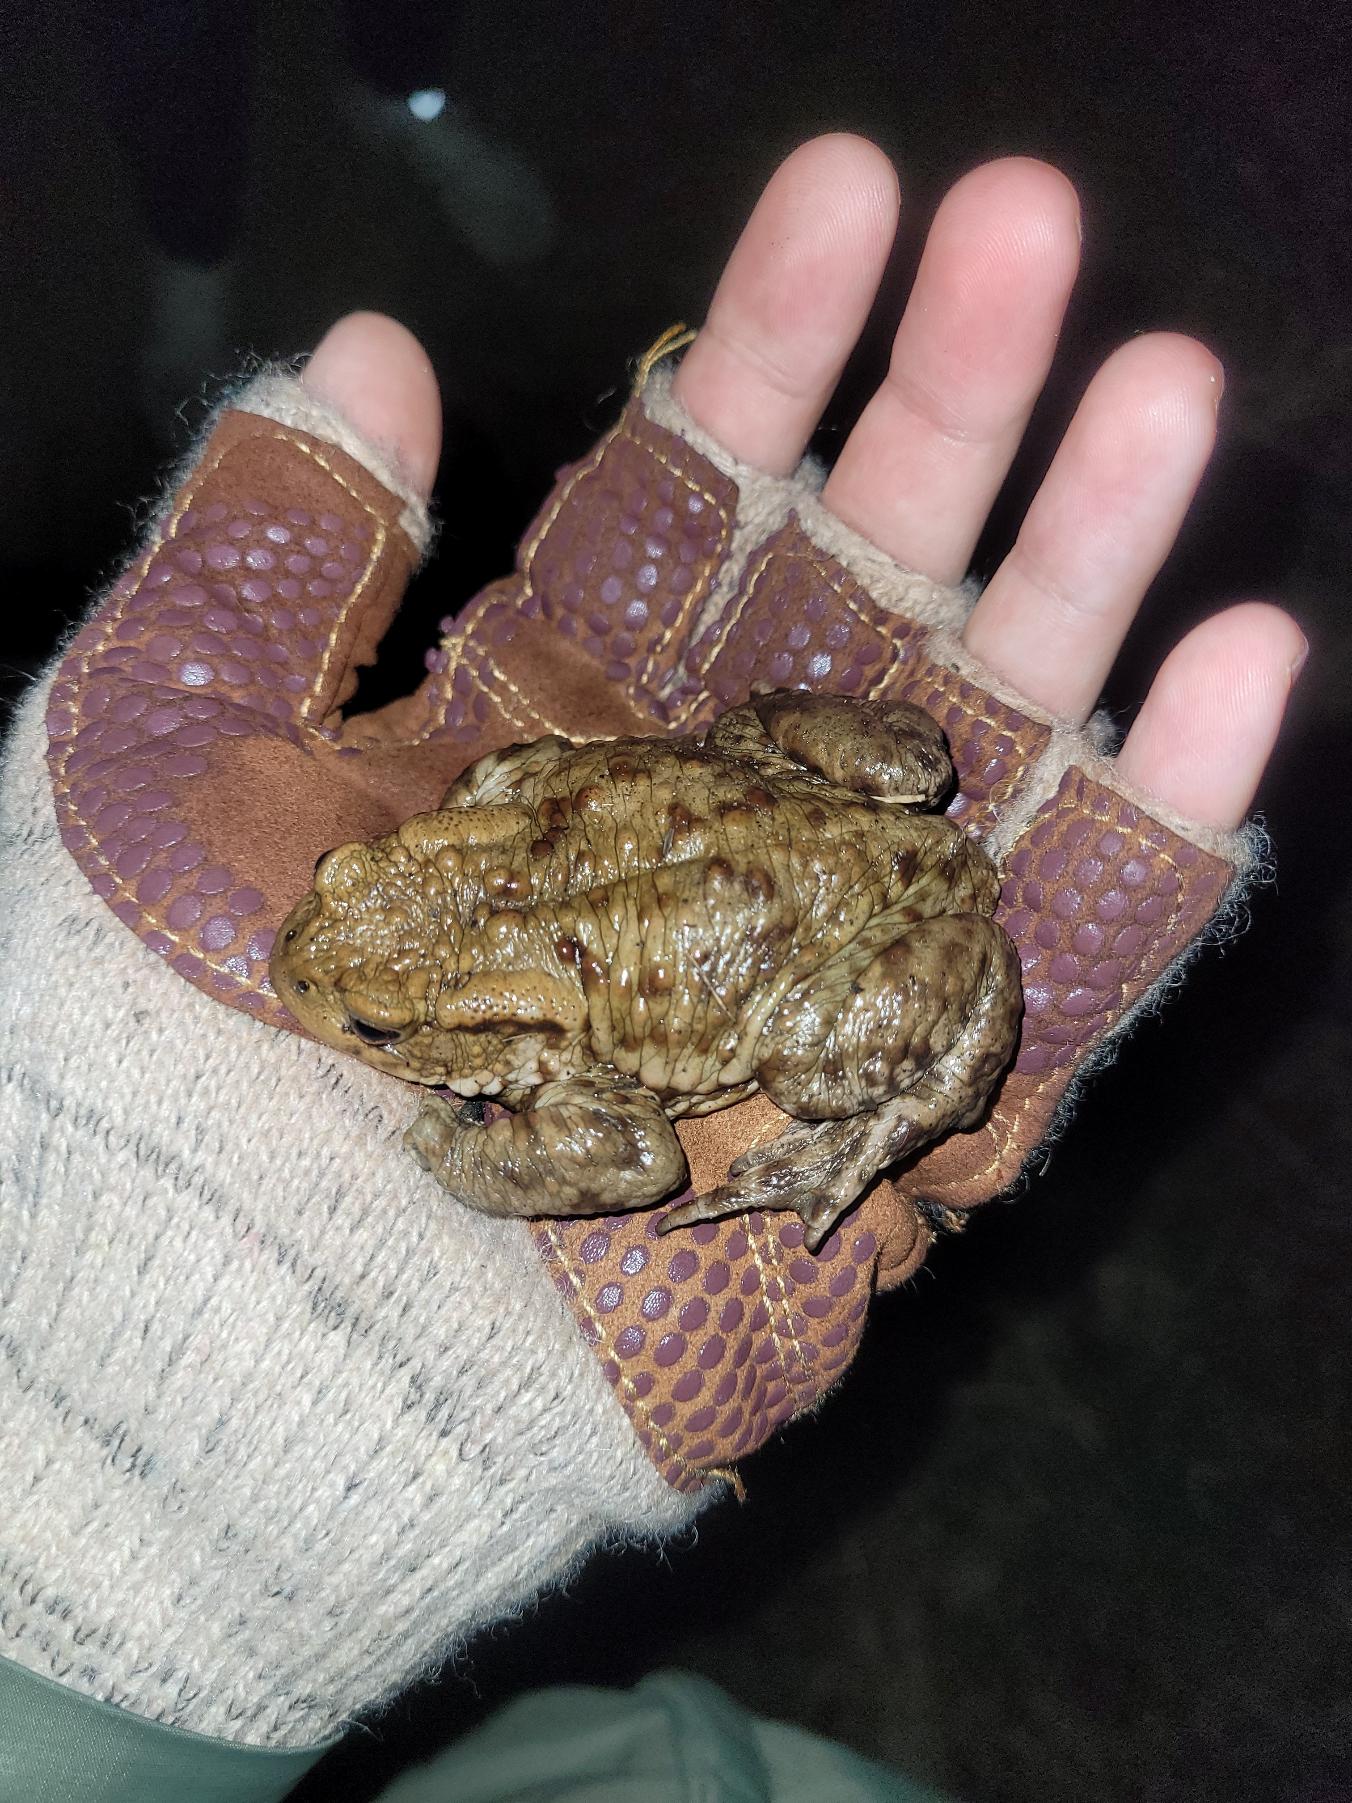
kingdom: Animalia
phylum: Chordata
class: Amphibia
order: Anura
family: Bufonidae
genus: Bufo
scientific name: Bufo bufo
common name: Skrubtudse
